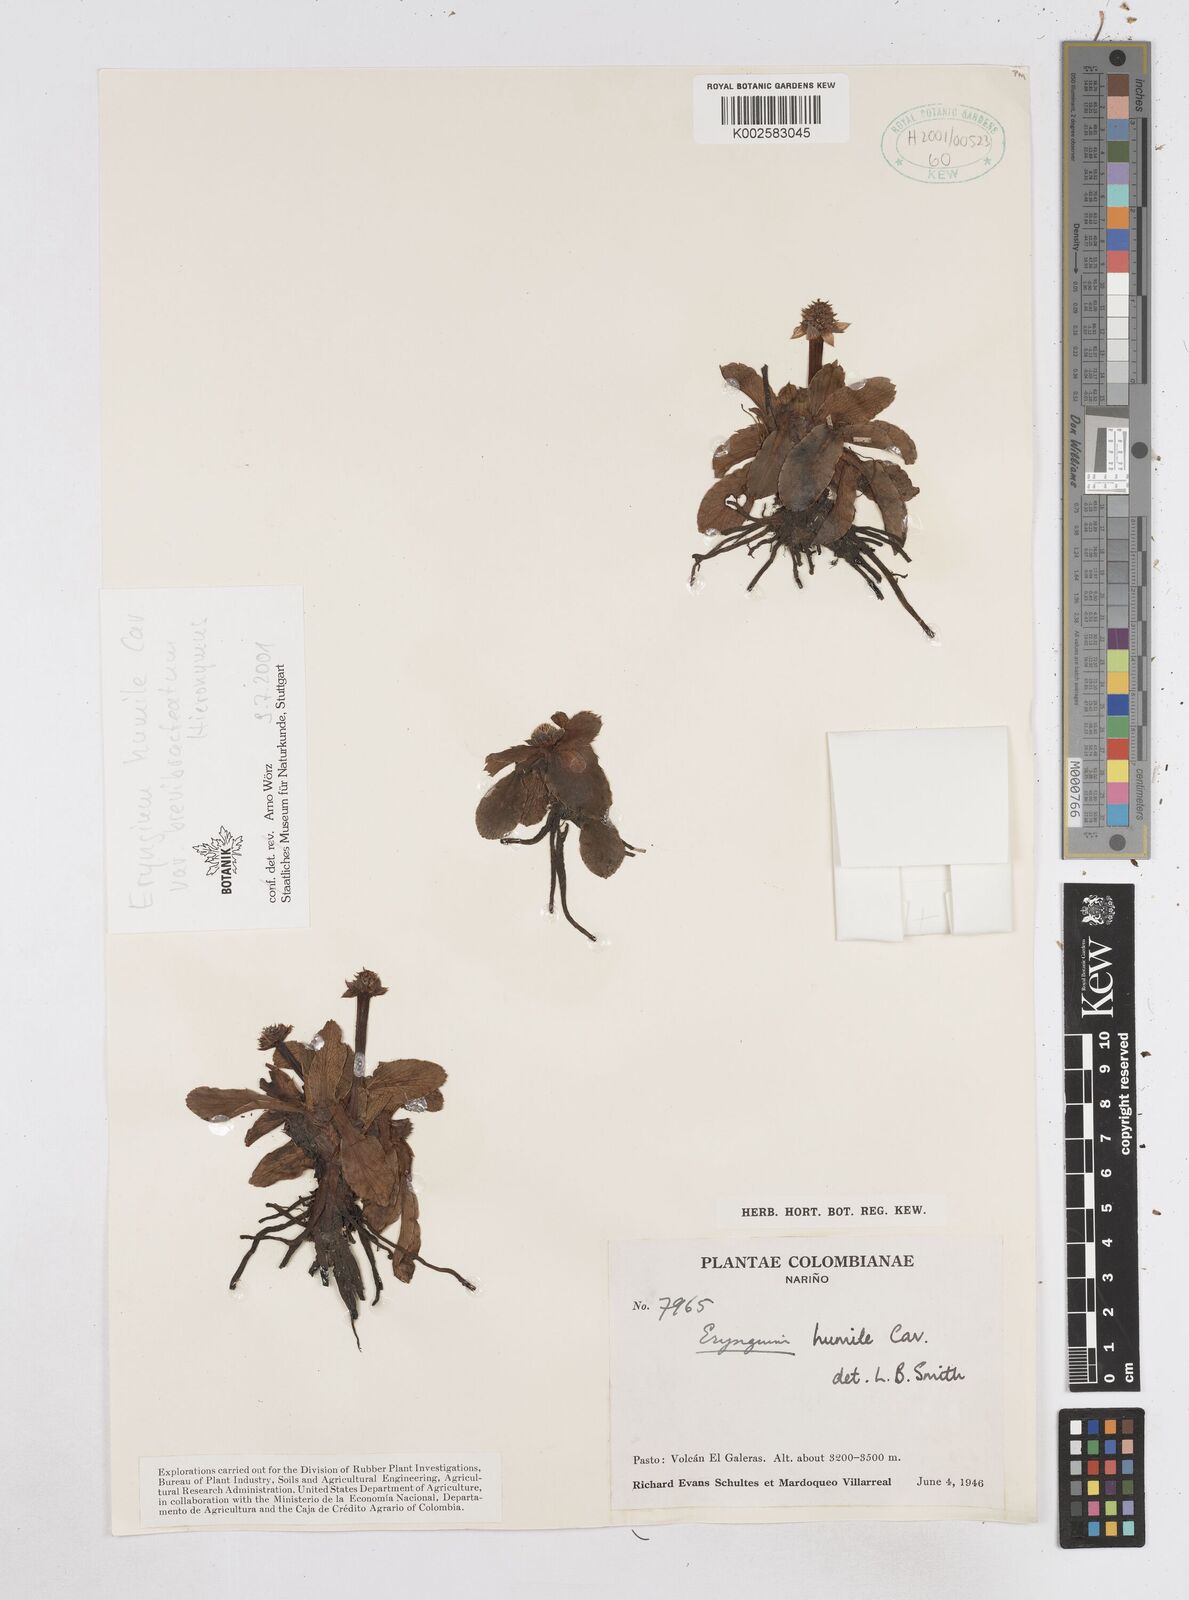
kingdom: Plantae
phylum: Tracheophyta
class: Magnoliopsida
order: Apiales
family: Apiaceae
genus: Eryngium
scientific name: Eryngium humile
